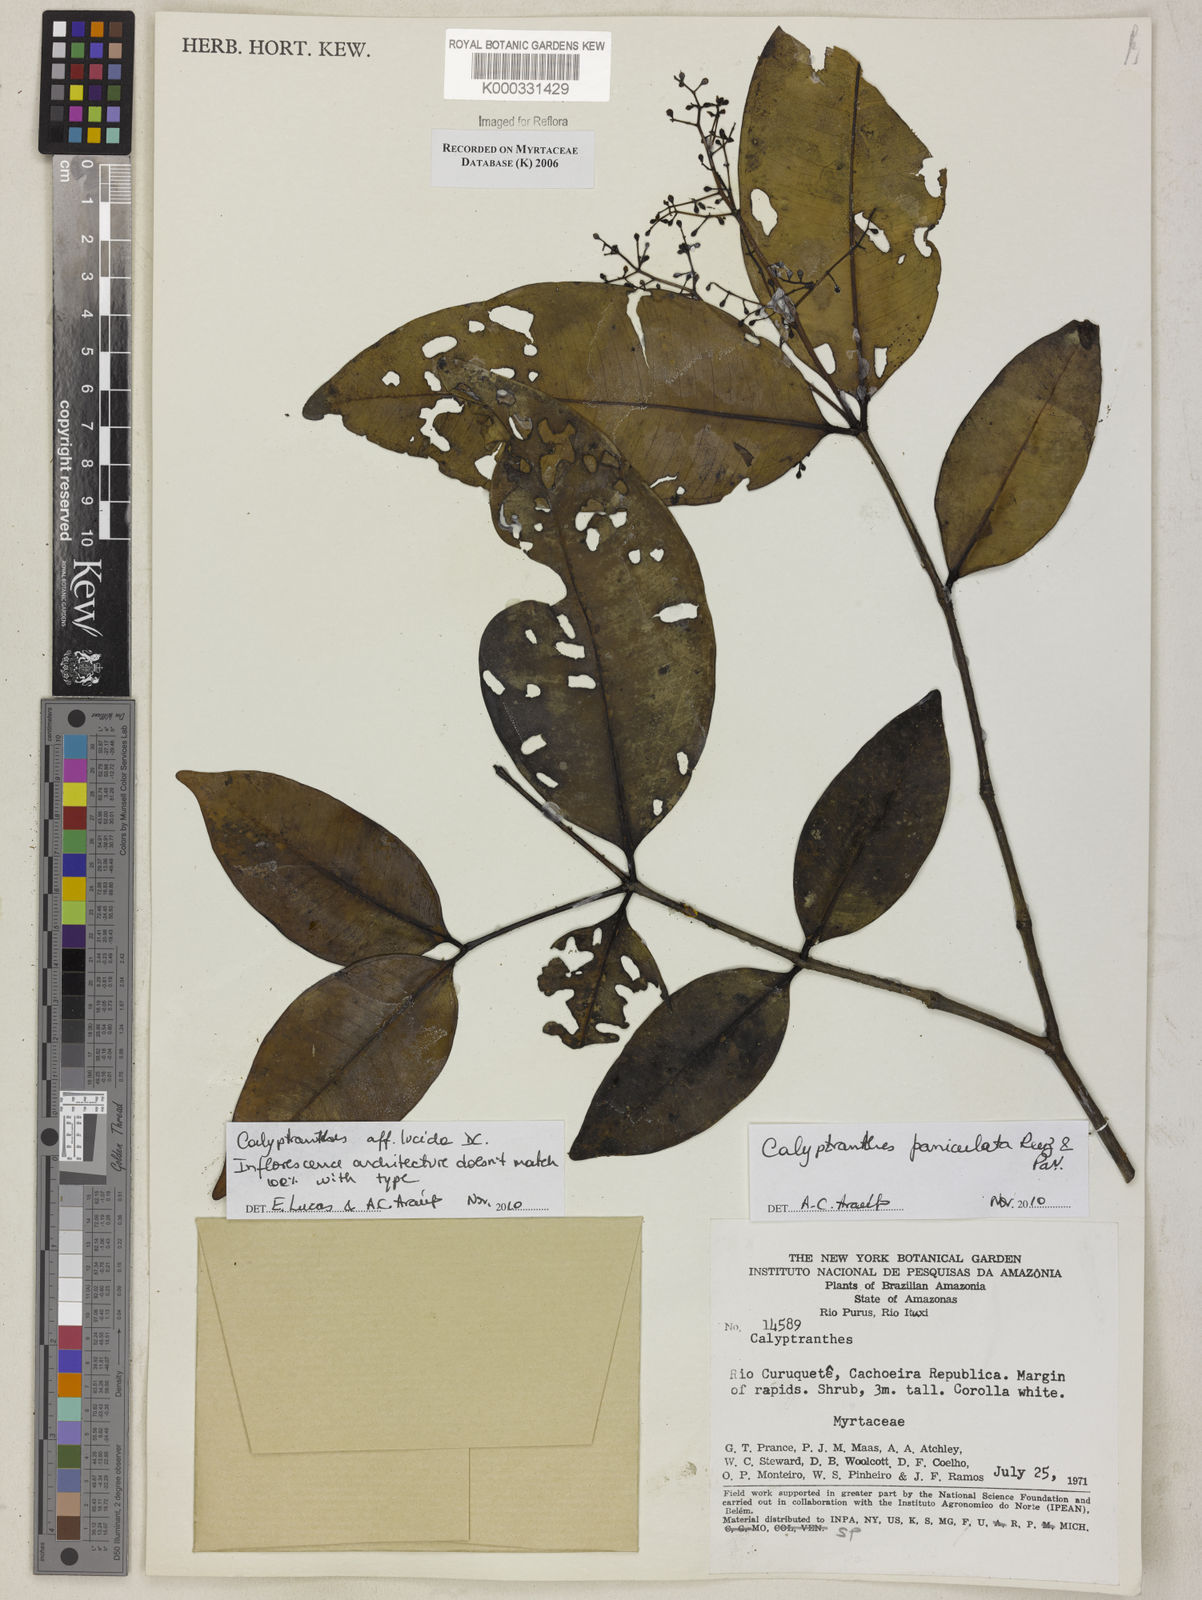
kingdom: Plantae
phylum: Tracheophyta
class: Magnoliopsida
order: Myrtales
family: Myrtaceae
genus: Calyptranthes
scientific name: Calyptranthes
